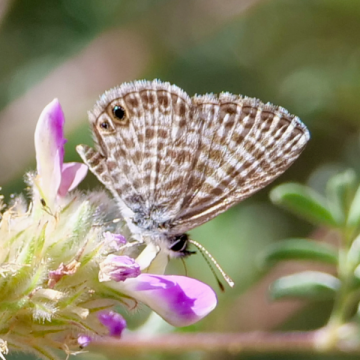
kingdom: Animalia
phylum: Arthropoda
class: Insecta
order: Lepidoptera
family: Lycaenidae
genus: Leptotes
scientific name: Leptotes marina
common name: Marine Blue
